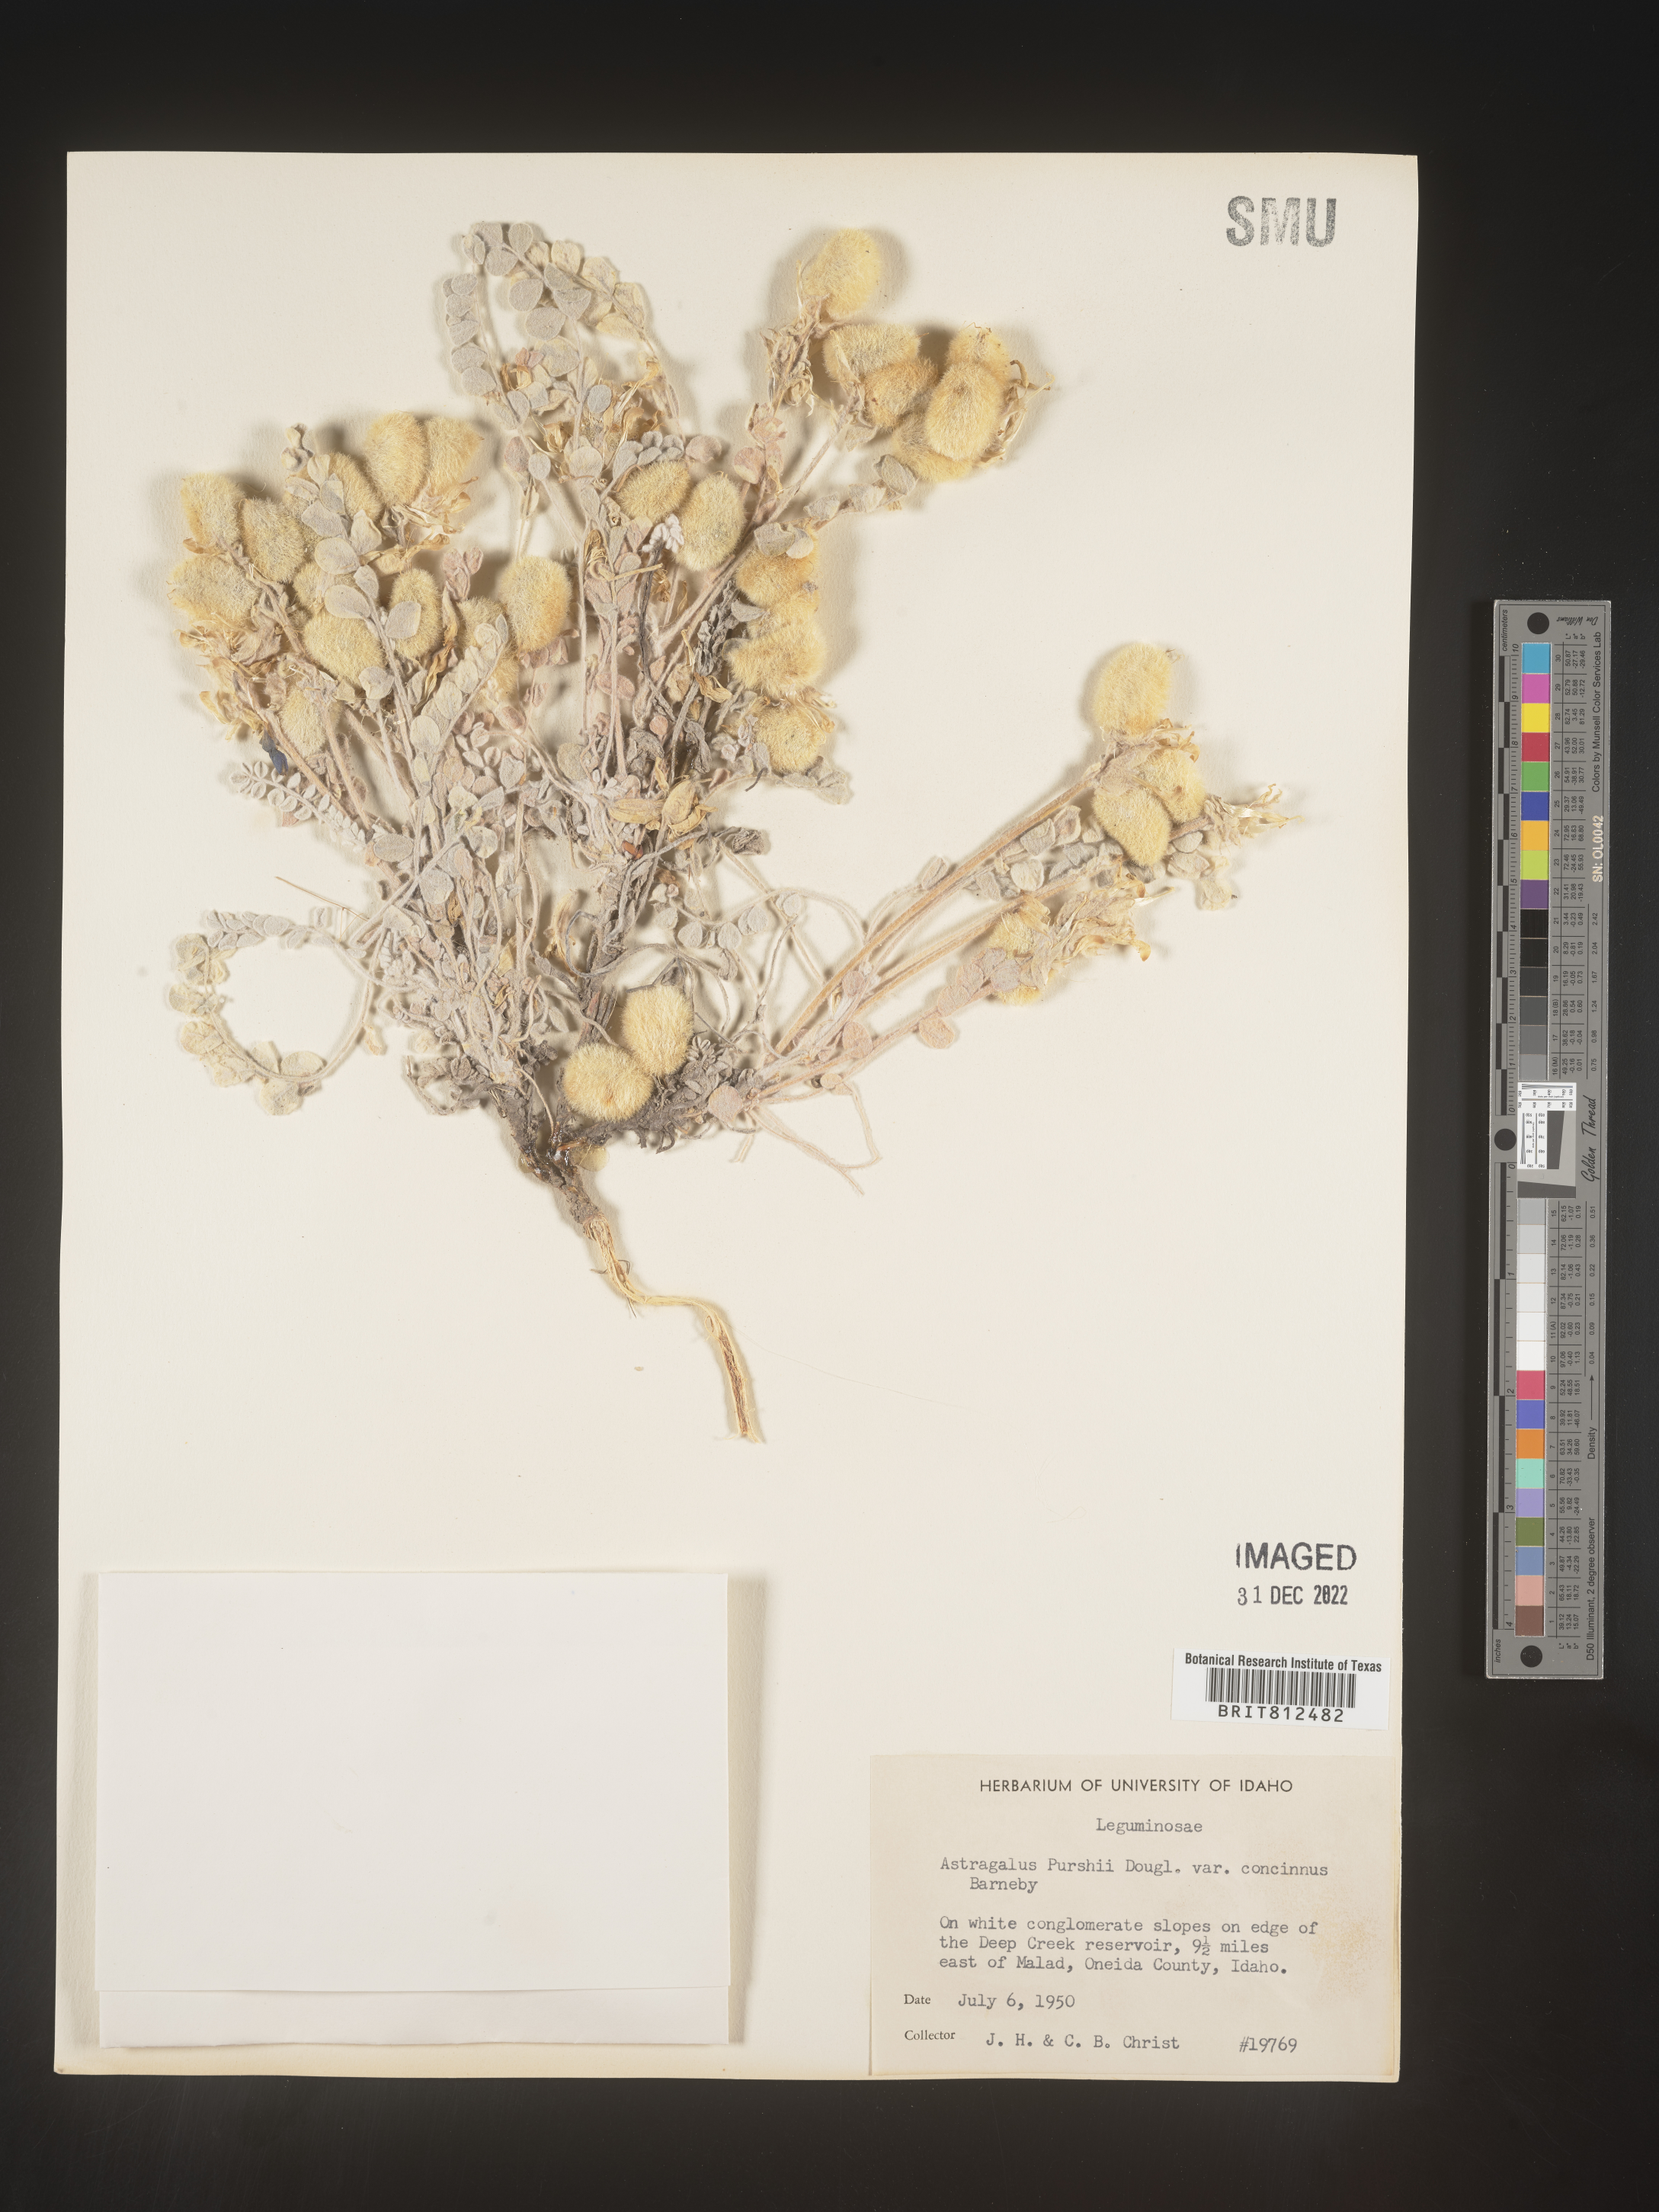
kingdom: Plantae
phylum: Tracheophyta
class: Magnoliopsida
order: Fabales
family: Fabaceae
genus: Astragalus
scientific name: Astragalus leucolobus
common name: Big bear valley woollypod
